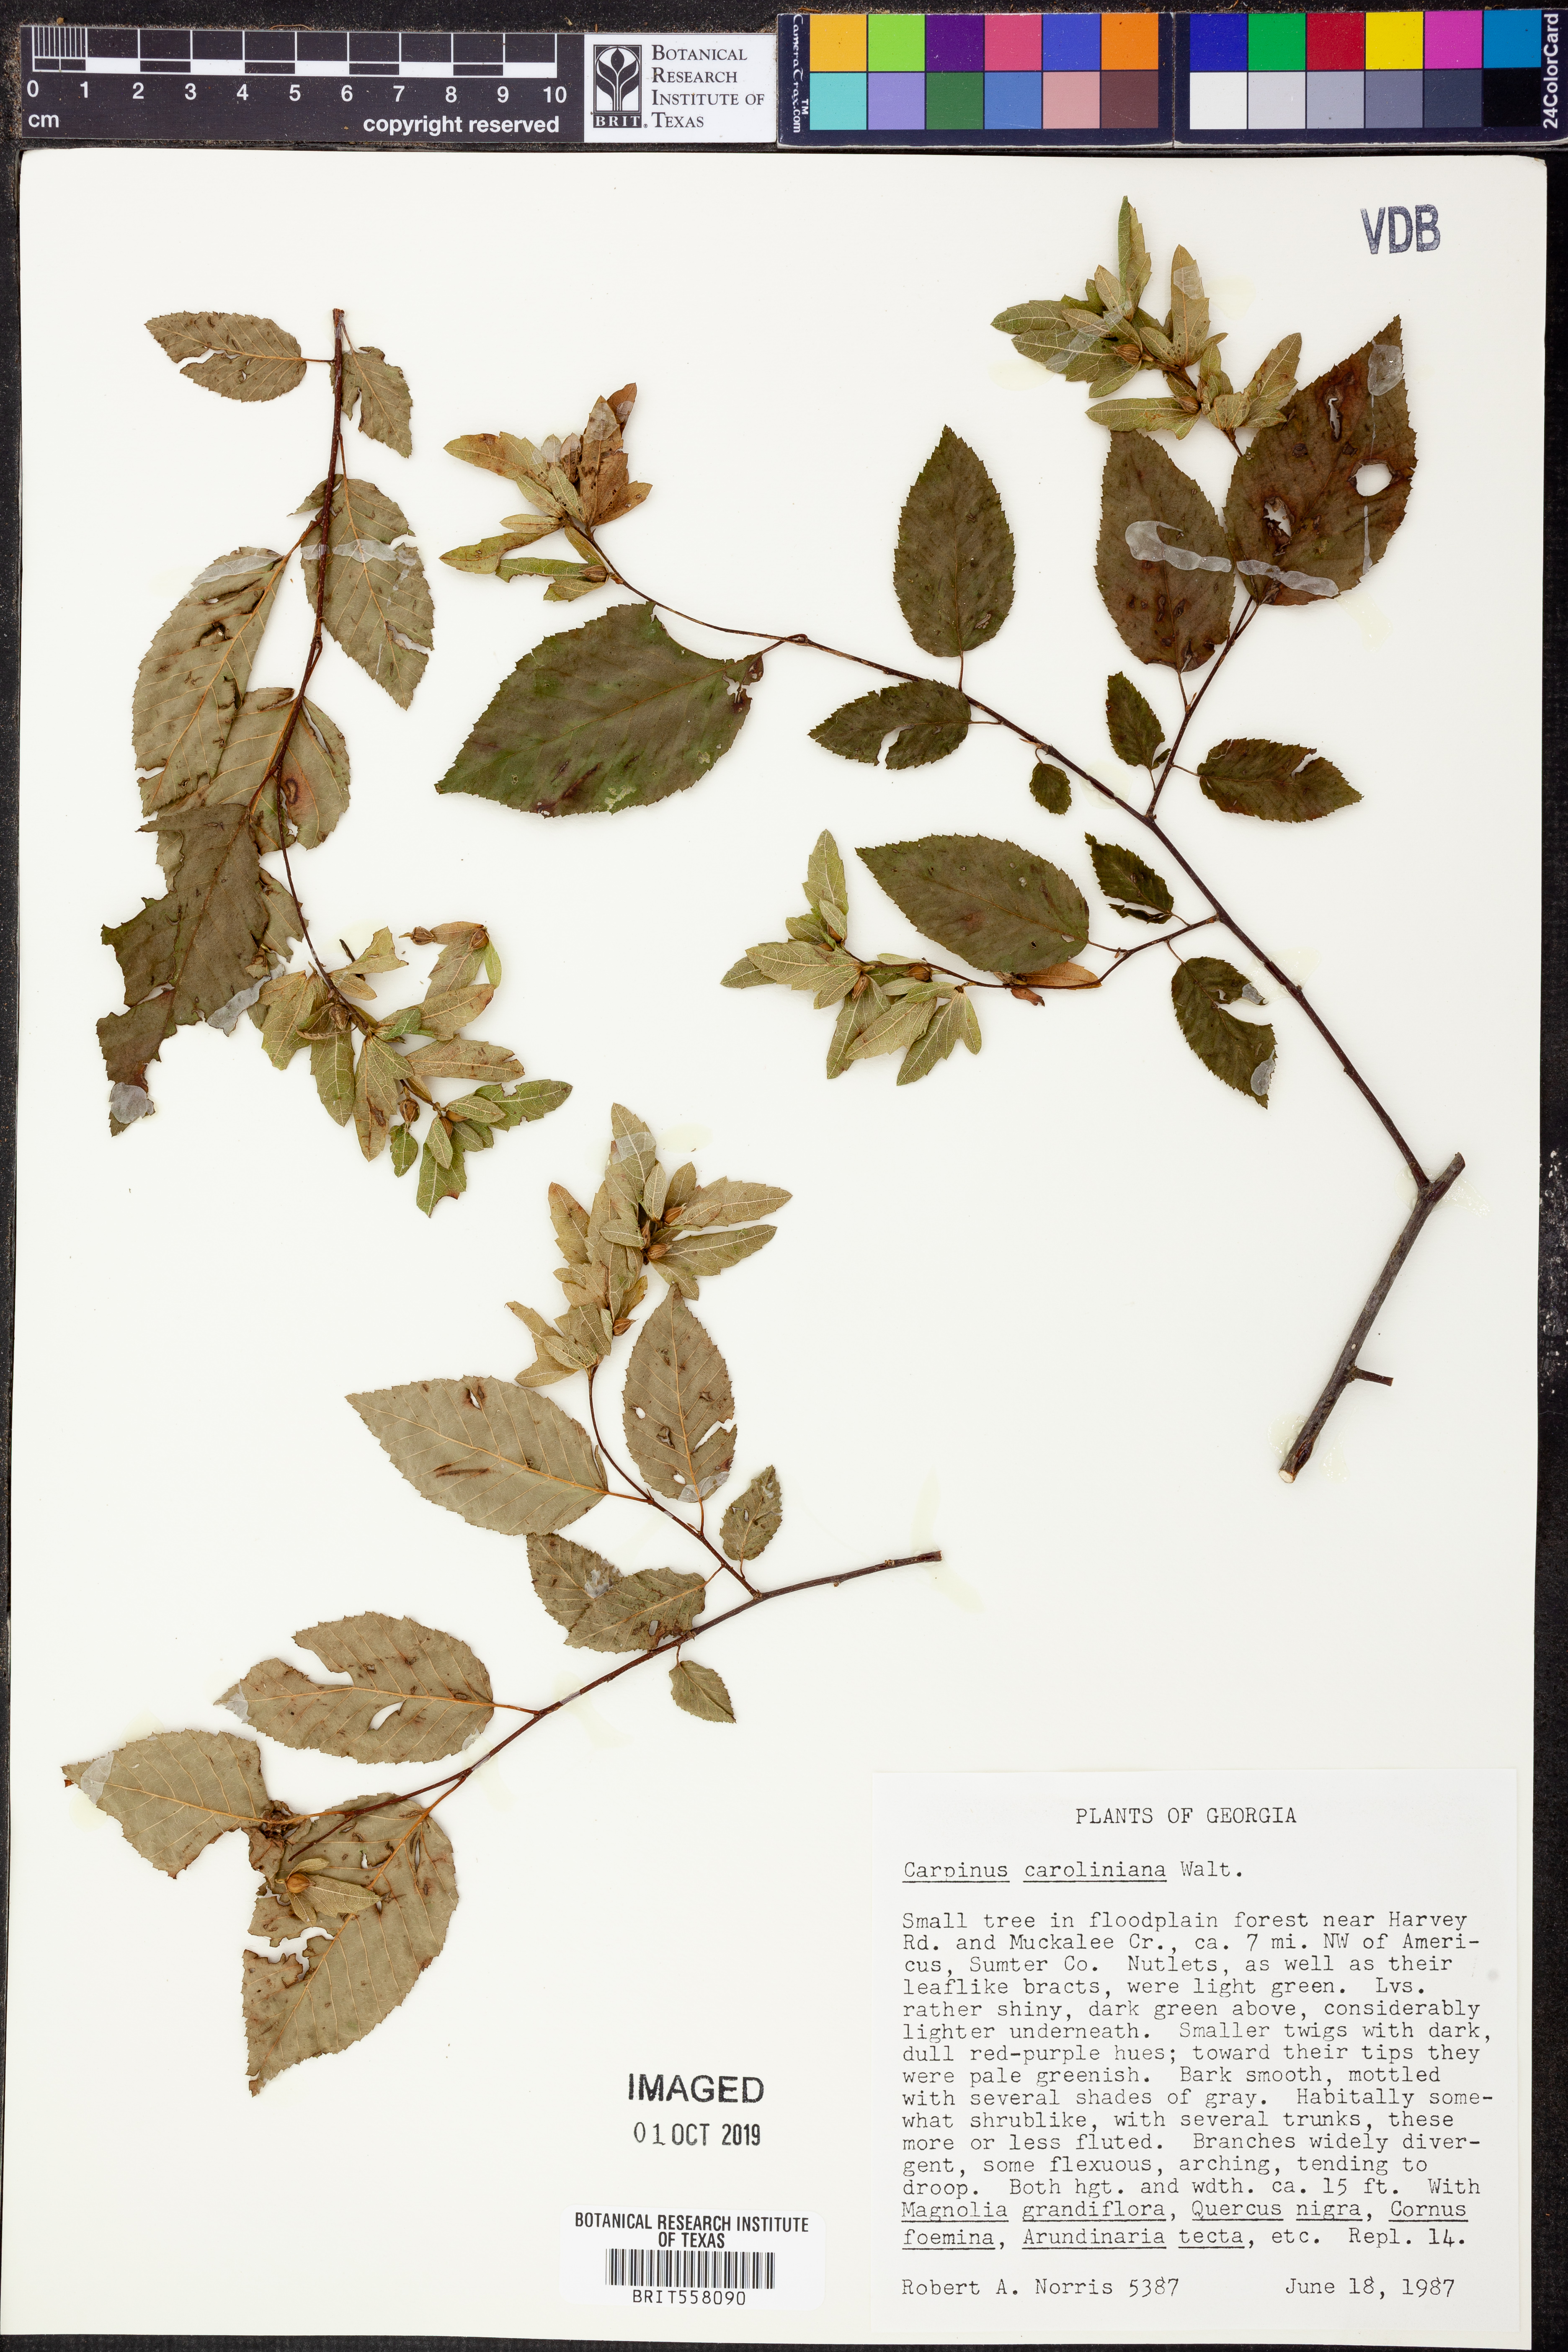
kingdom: Plantae
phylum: Tracheophyta
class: Magnoliopsida
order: Fagales
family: Betulaceae
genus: Carpinus
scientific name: Carpinus caroliniana
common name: American hornbeam
